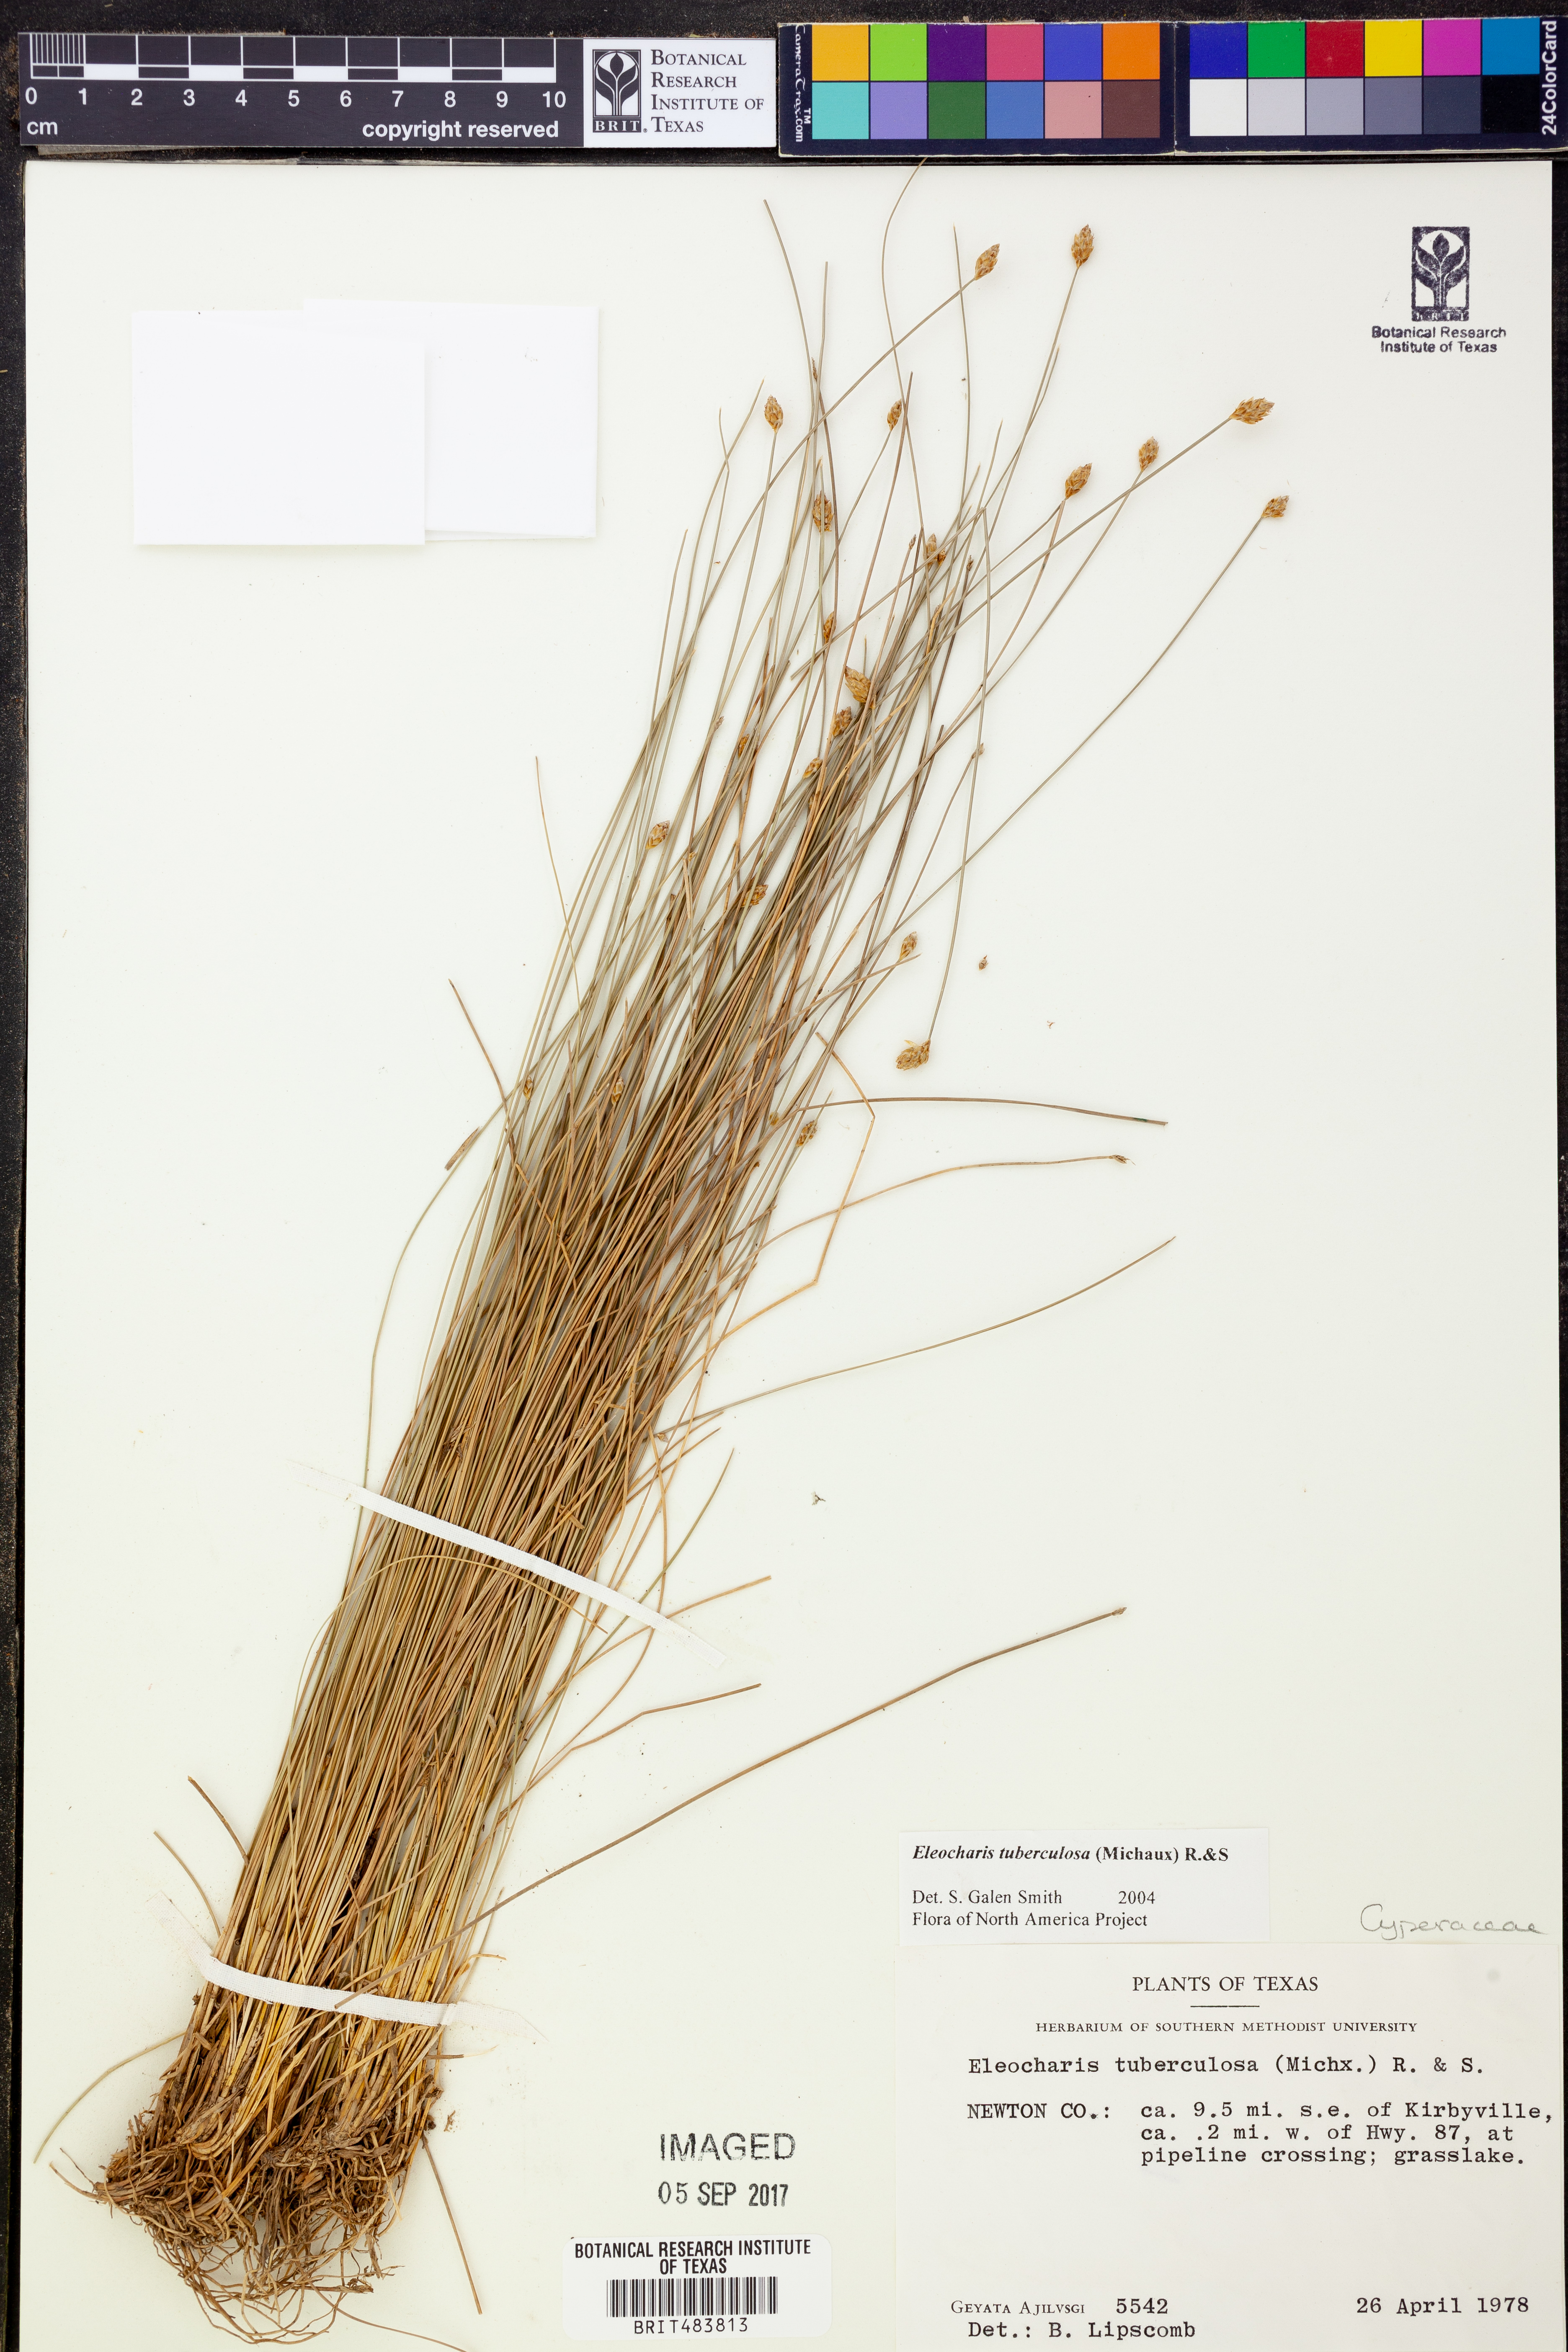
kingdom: Plantae
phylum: Tracheophyta
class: Liliopsida
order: Poales
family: Cyperaceae
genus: Eleocharis
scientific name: Eleocharis tuberculosa
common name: Cone-cup spikerush
